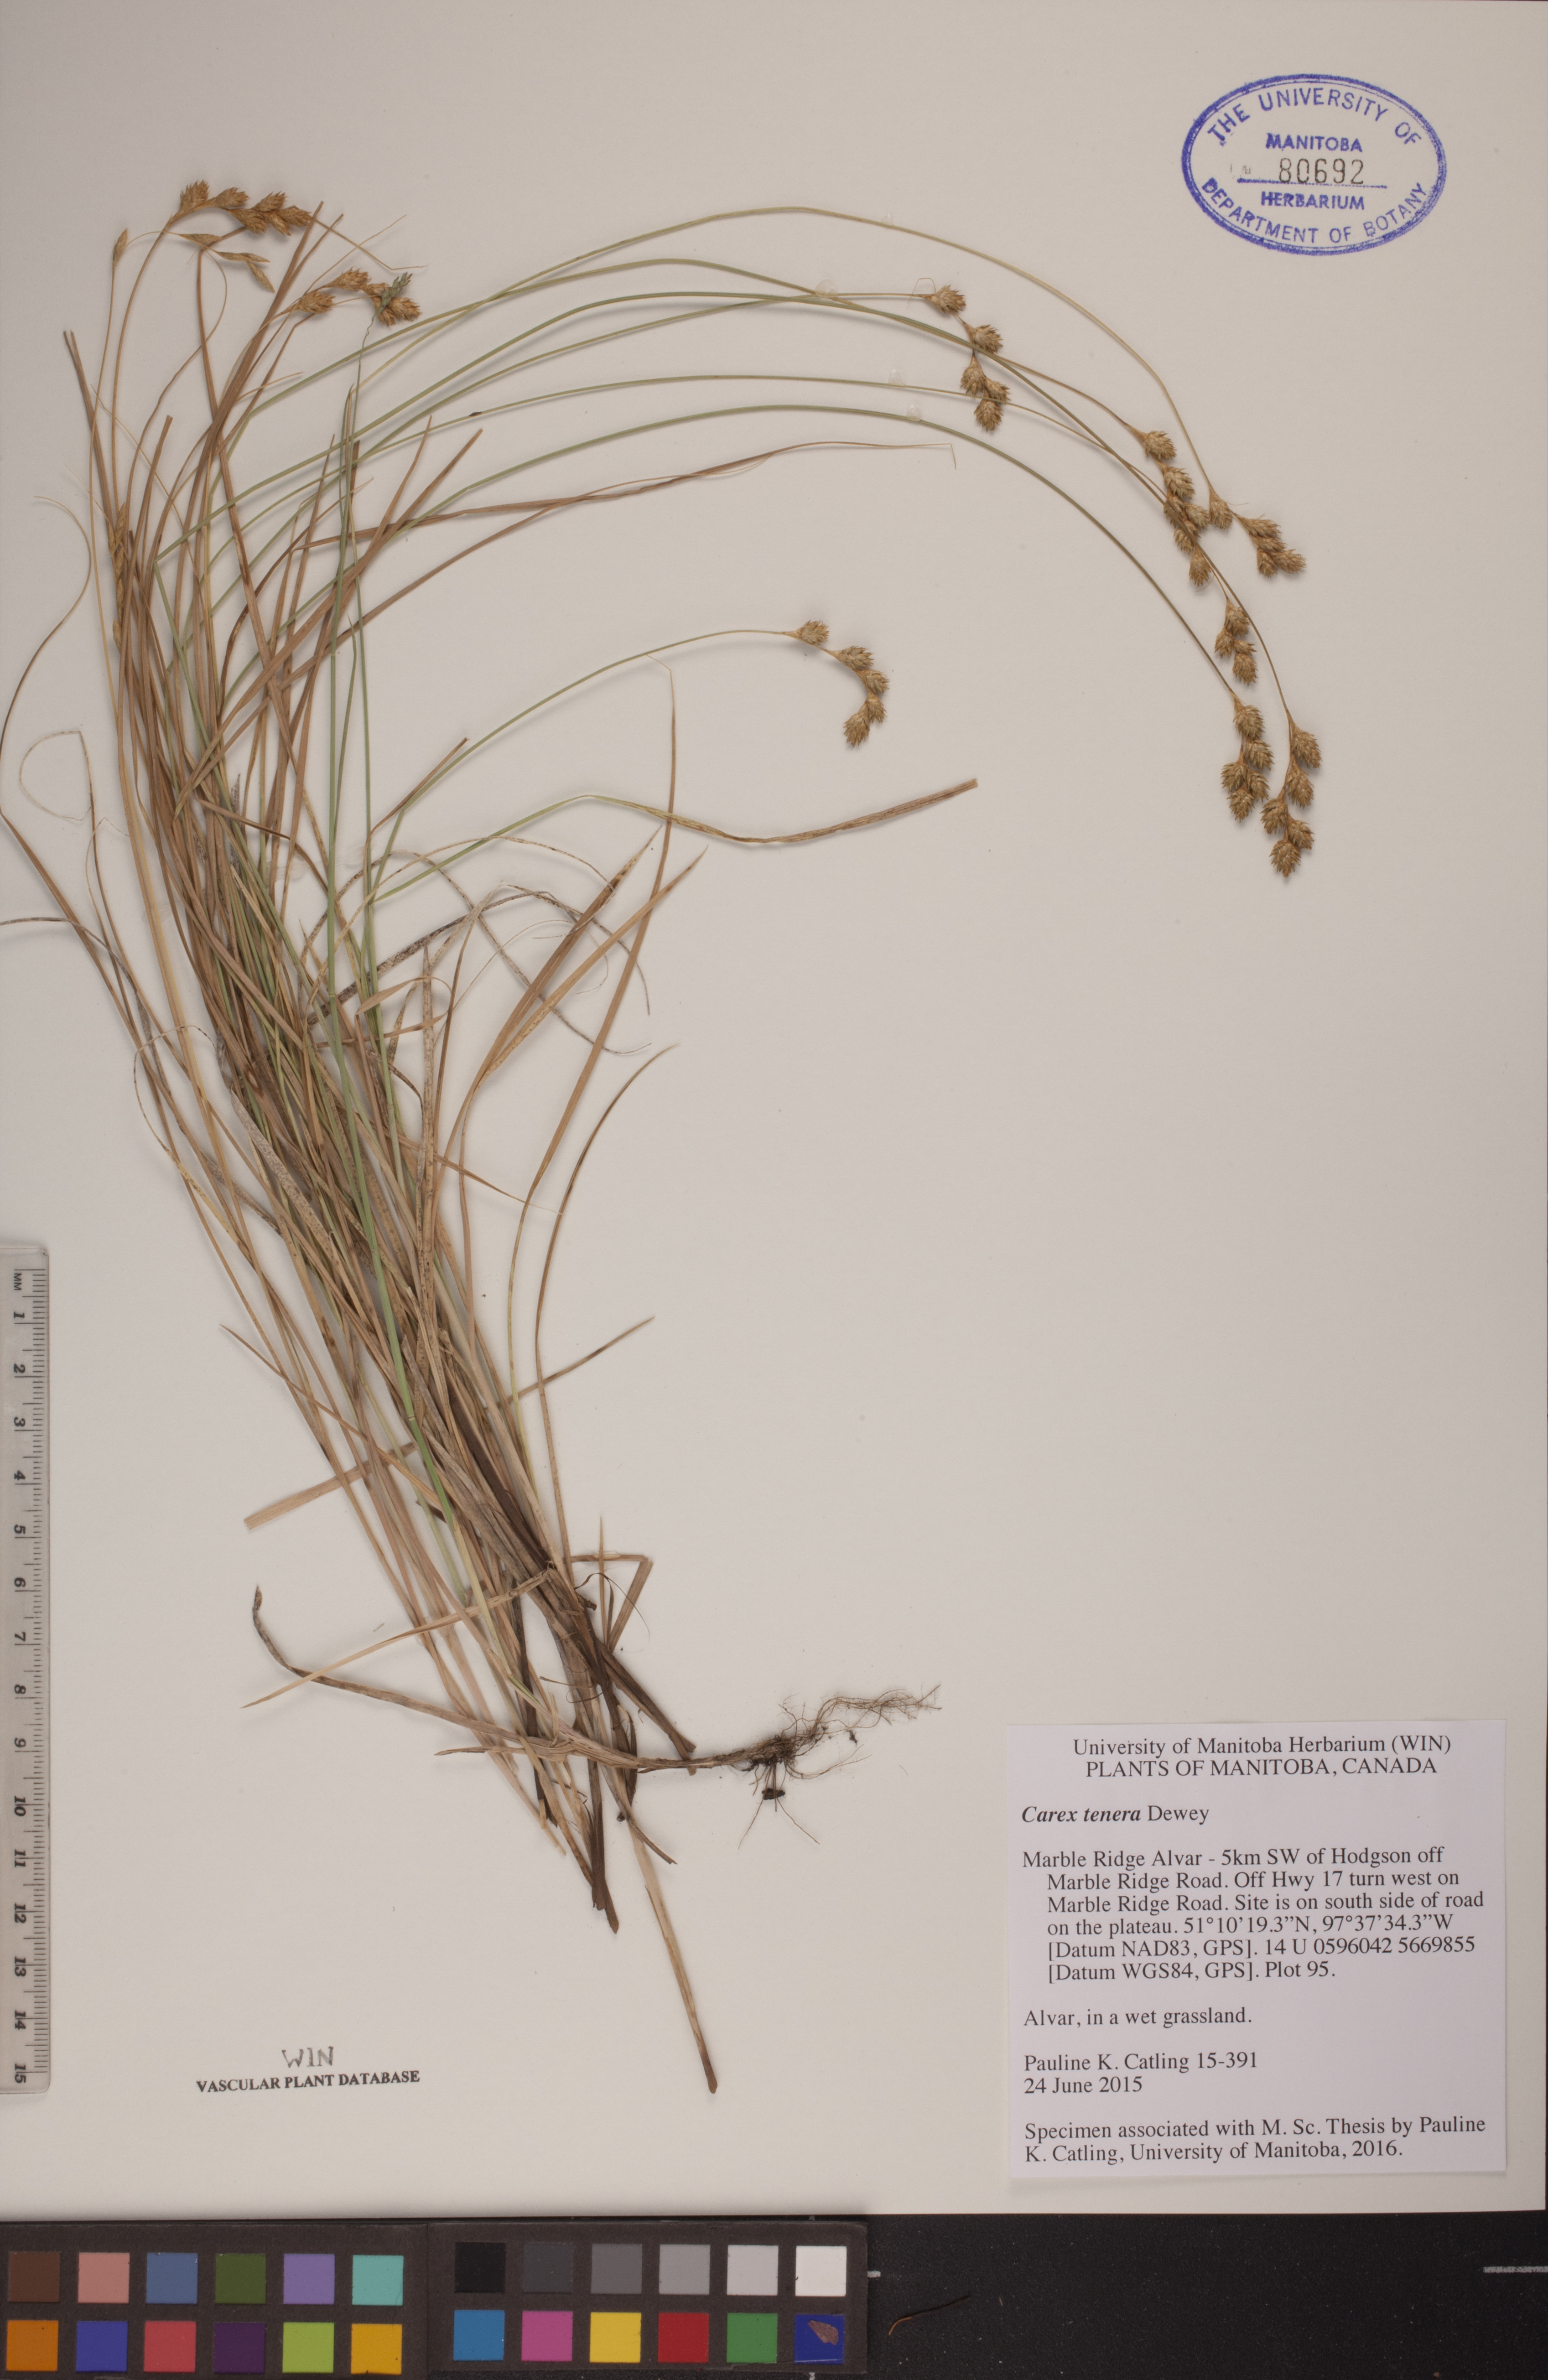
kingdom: Plantae
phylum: Tracheophyta
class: Liliopsida
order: Poales
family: Cyperaceae
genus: Carex
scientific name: Carex tenera
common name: Broad-fruited sedge
